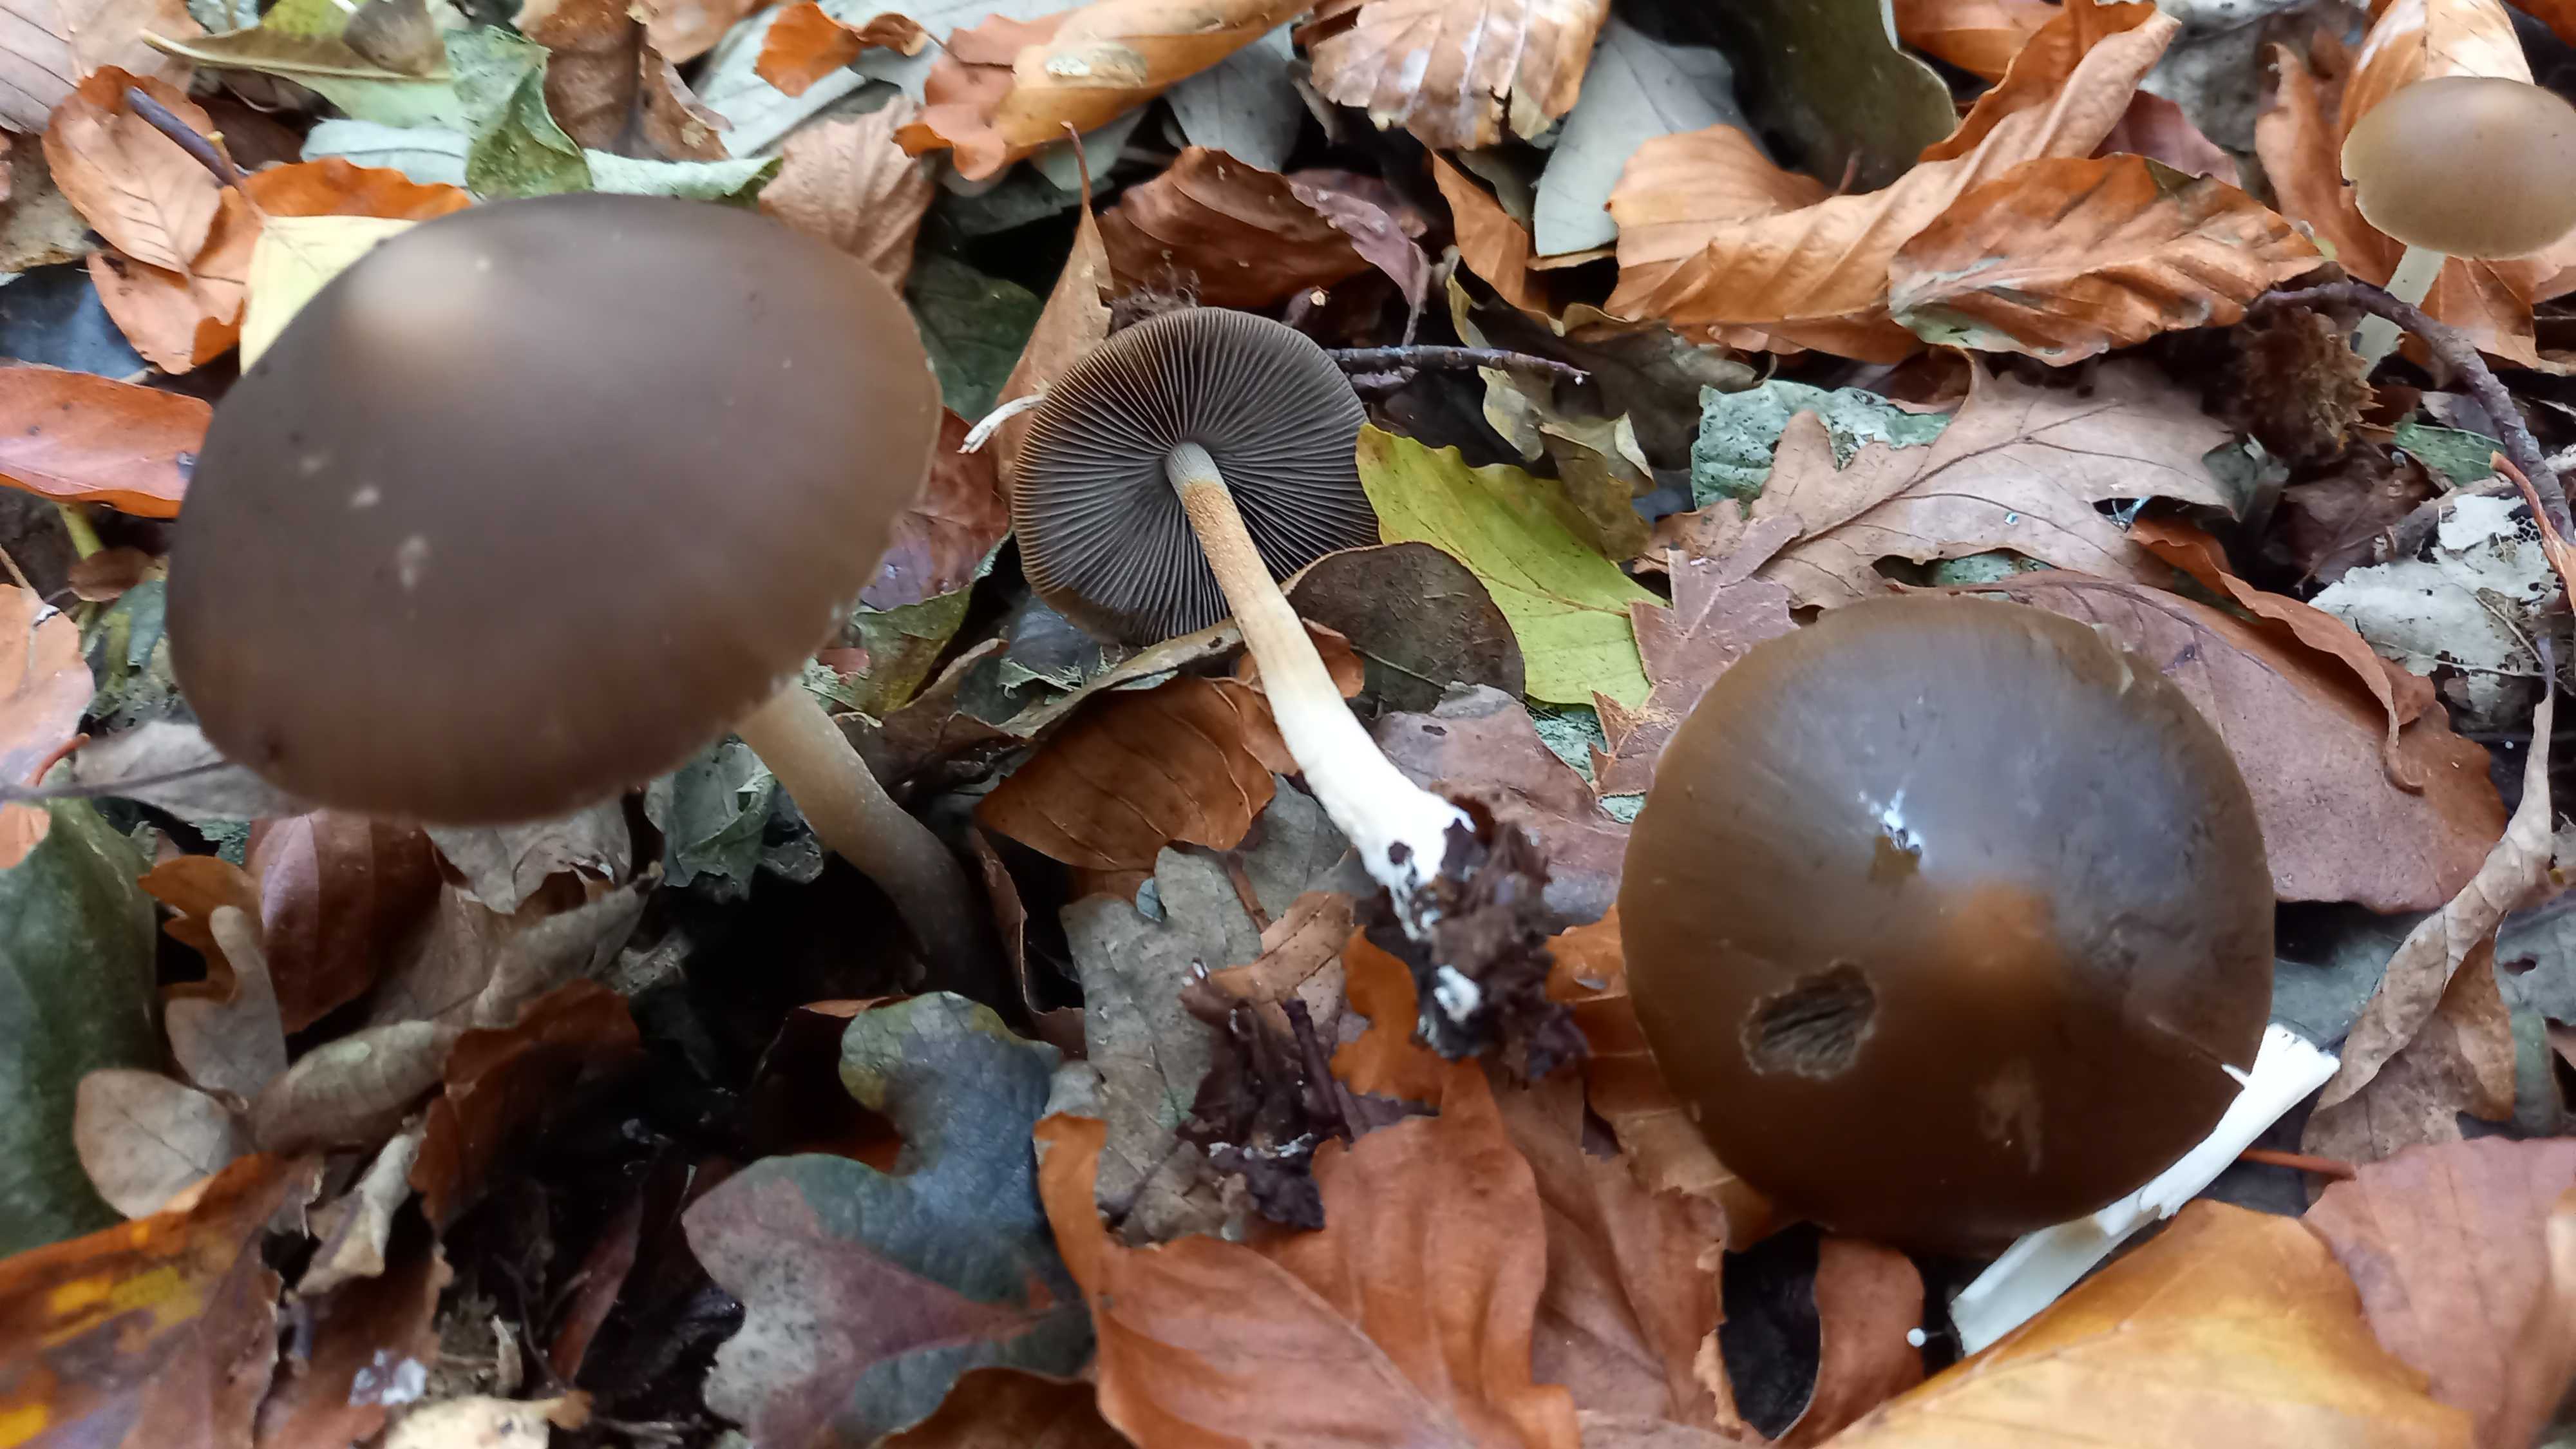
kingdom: Fungi
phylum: Basidiomycota
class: Agaricomycetes
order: Agaricales
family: Psathyrellaceae
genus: Parasola
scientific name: Parasola conopilea
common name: kegle-hjulhat
